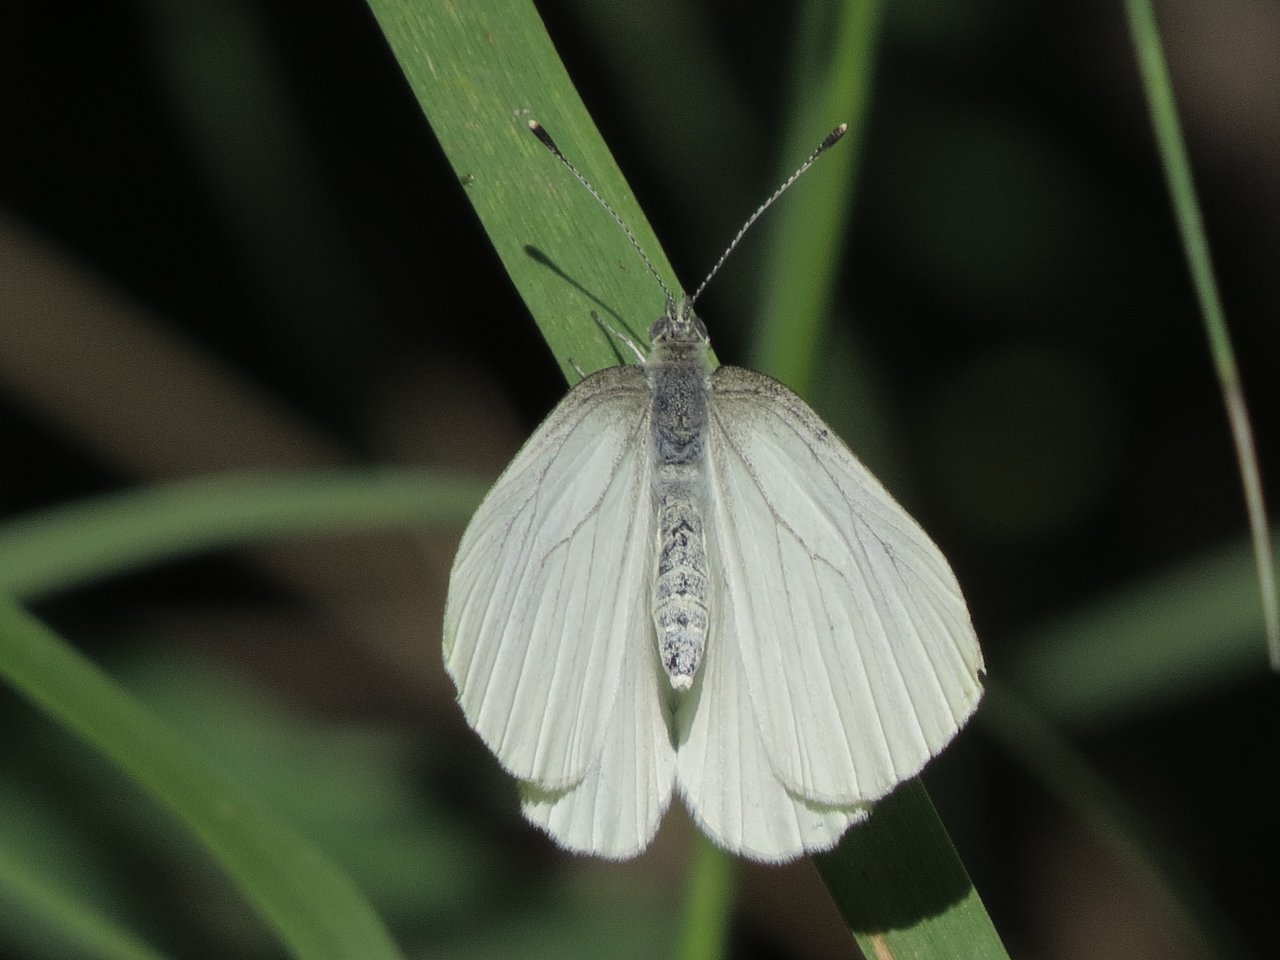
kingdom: Animalia
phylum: Arthropoda
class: Insecta
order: Lepidoptera
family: Pieridae
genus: Pieris
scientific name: Pieris oleracea
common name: Mustard White
